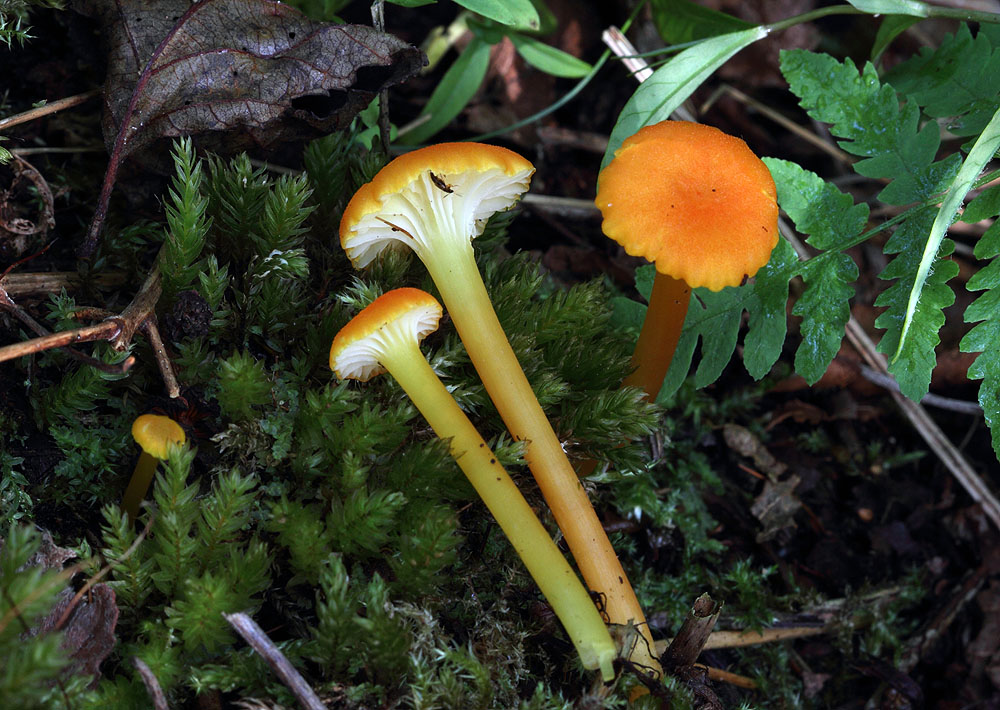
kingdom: Fungi
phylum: Basidiomycota
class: Agaricomycetes
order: Agaricales
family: Hygrophoraceae
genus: Hygrocybe
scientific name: Hygrocybe cantharellus
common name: kantarel-vokshat
